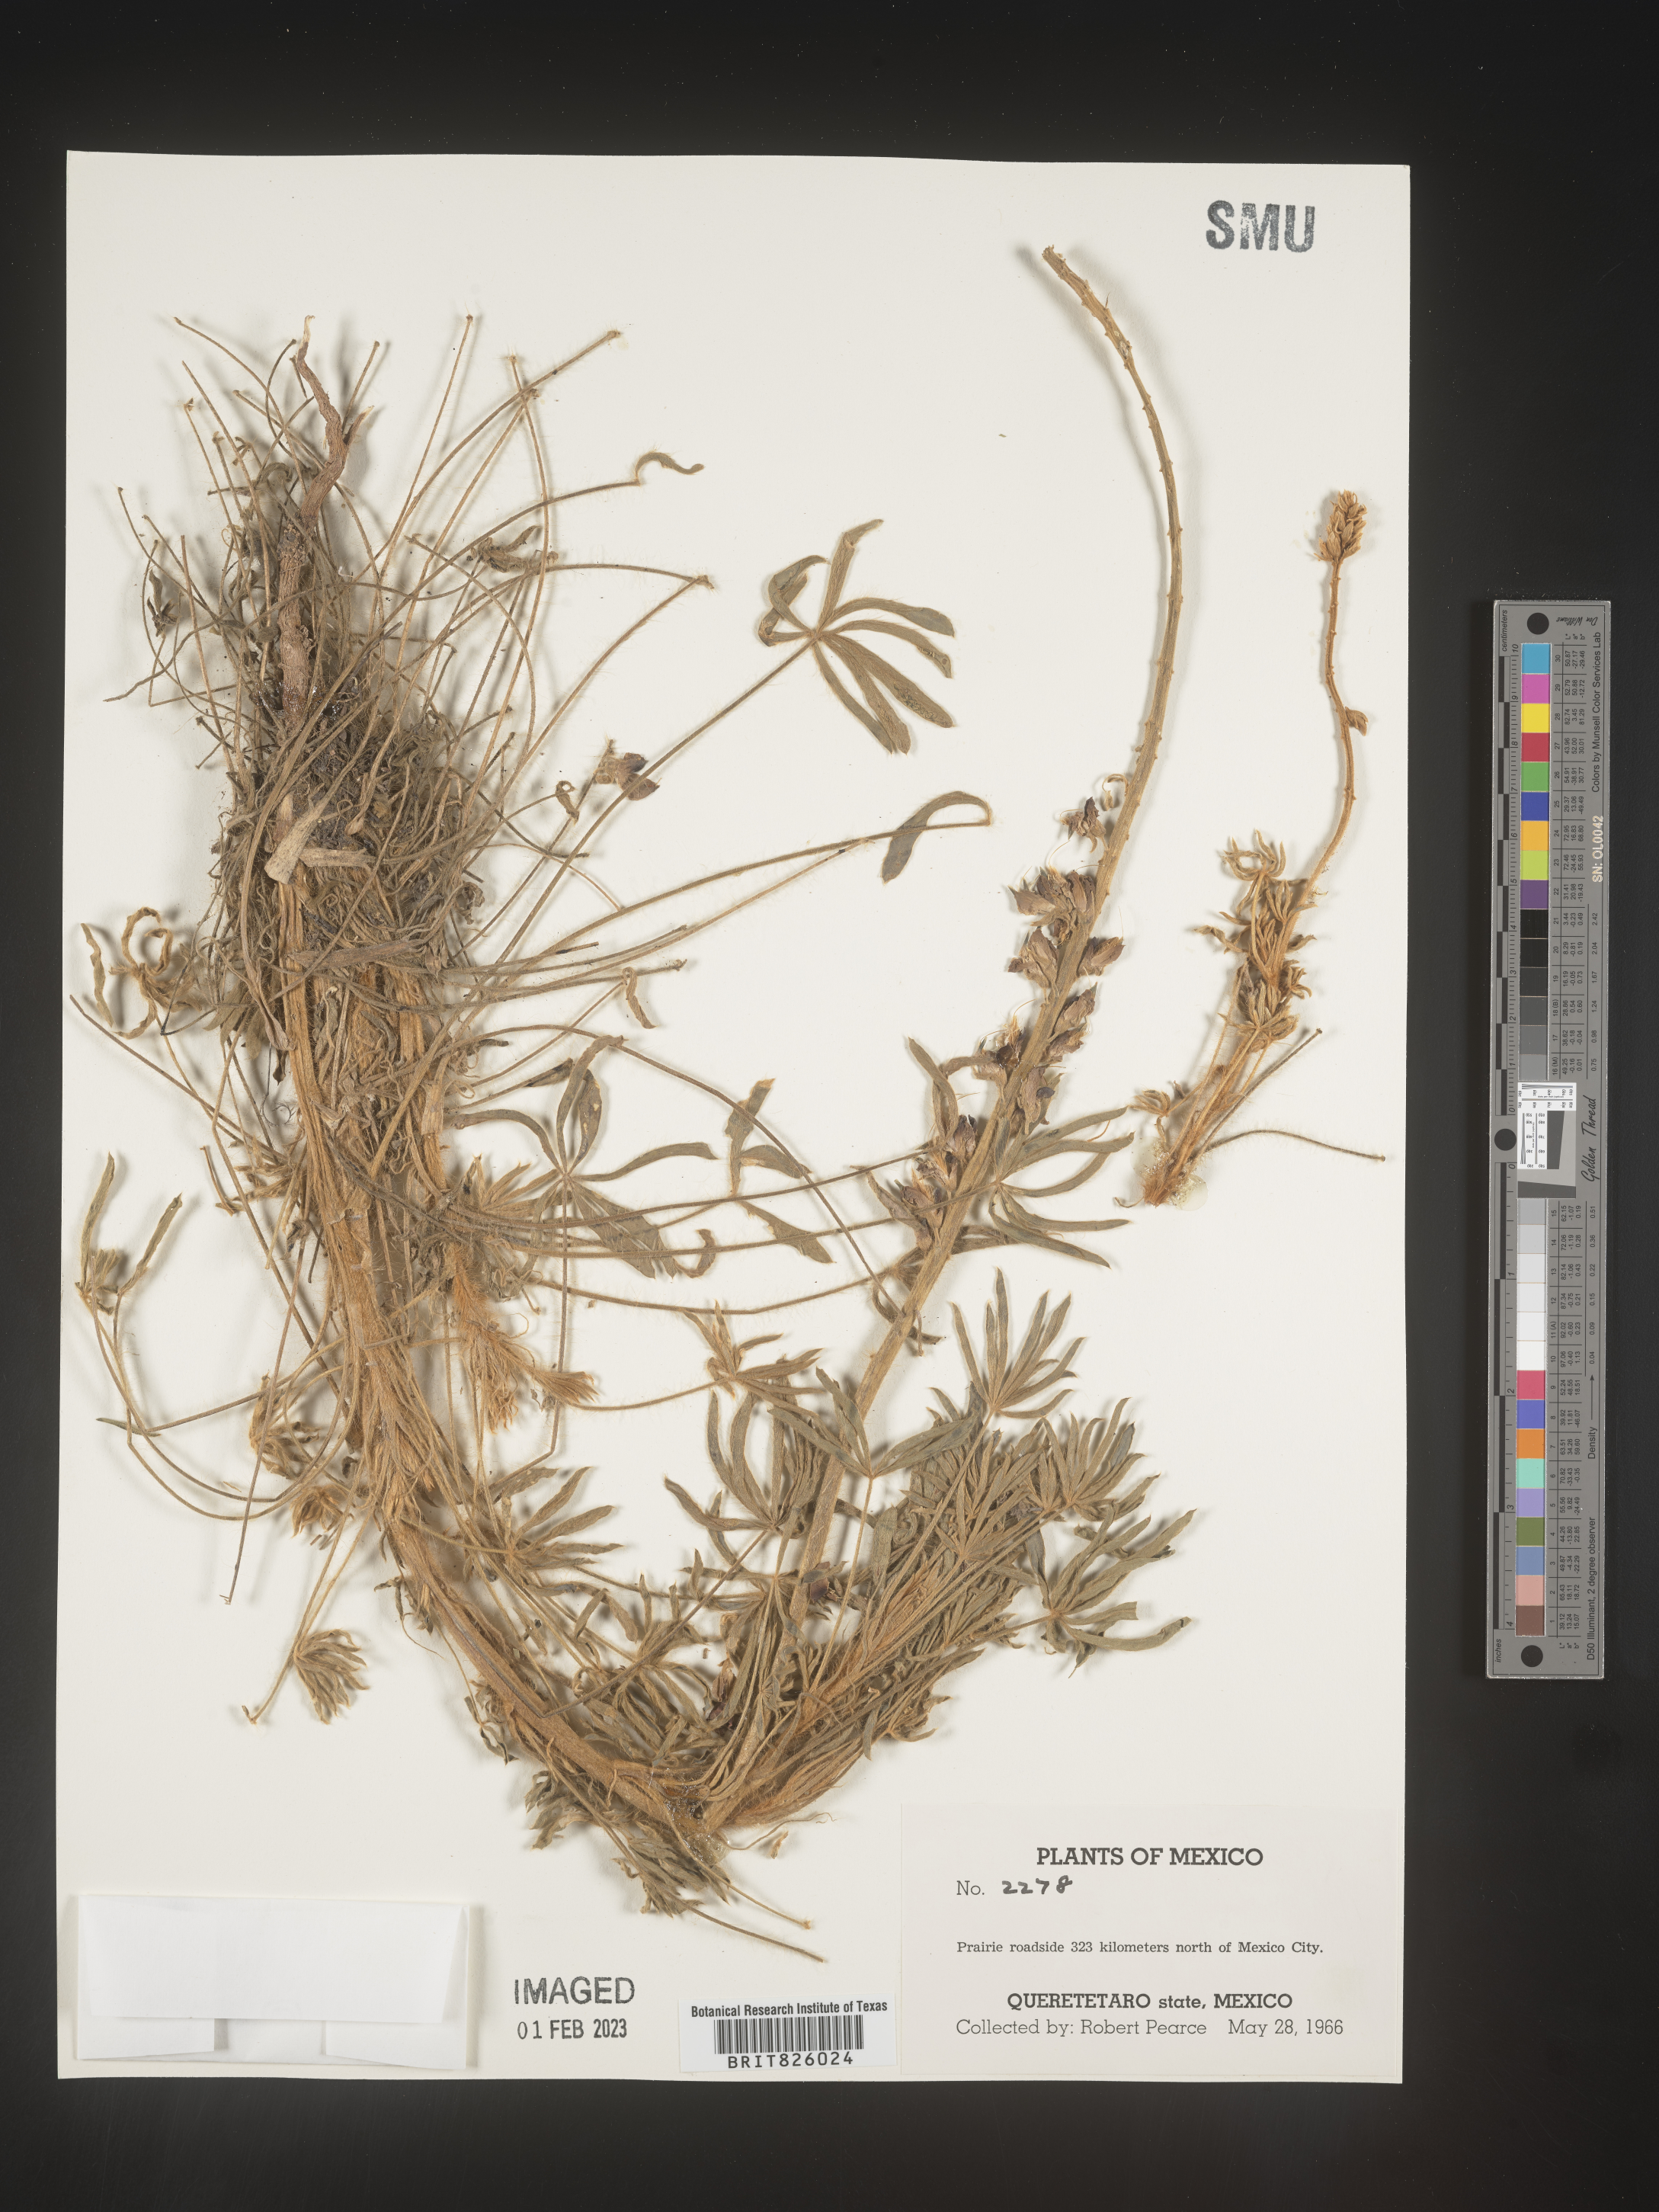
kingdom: Plantae
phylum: Tracheophyta
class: Magnoliopsida
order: Fabales
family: Fabaceae
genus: Lupinus
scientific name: Lupinus
